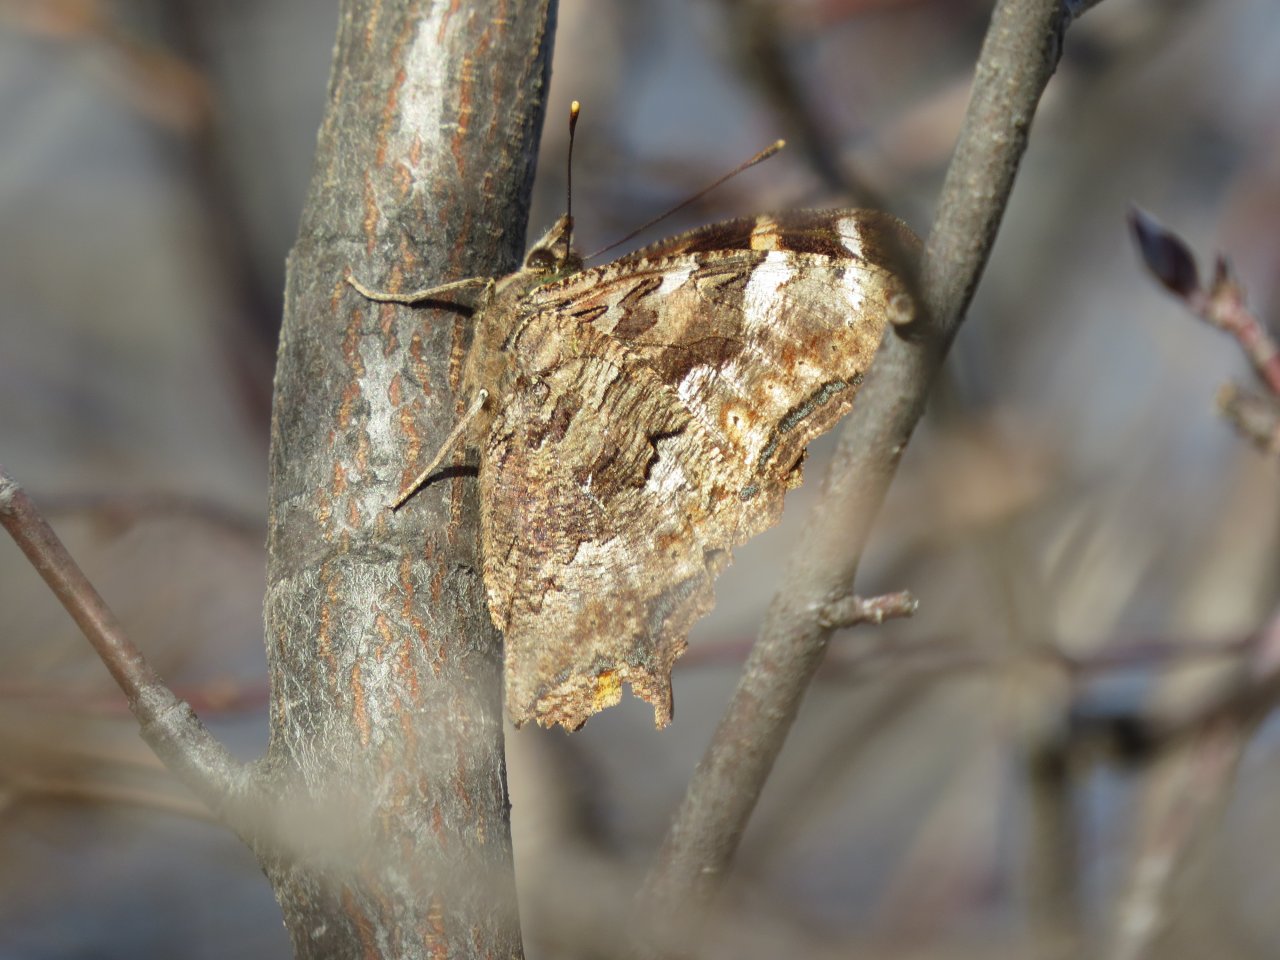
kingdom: Animalia
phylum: Arthropoda
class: Insecta
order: Lepidoptera
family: Nymphalidae
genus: Polygonia
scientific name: Polygonia vaualbum
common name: Compton Tortoiseshell
